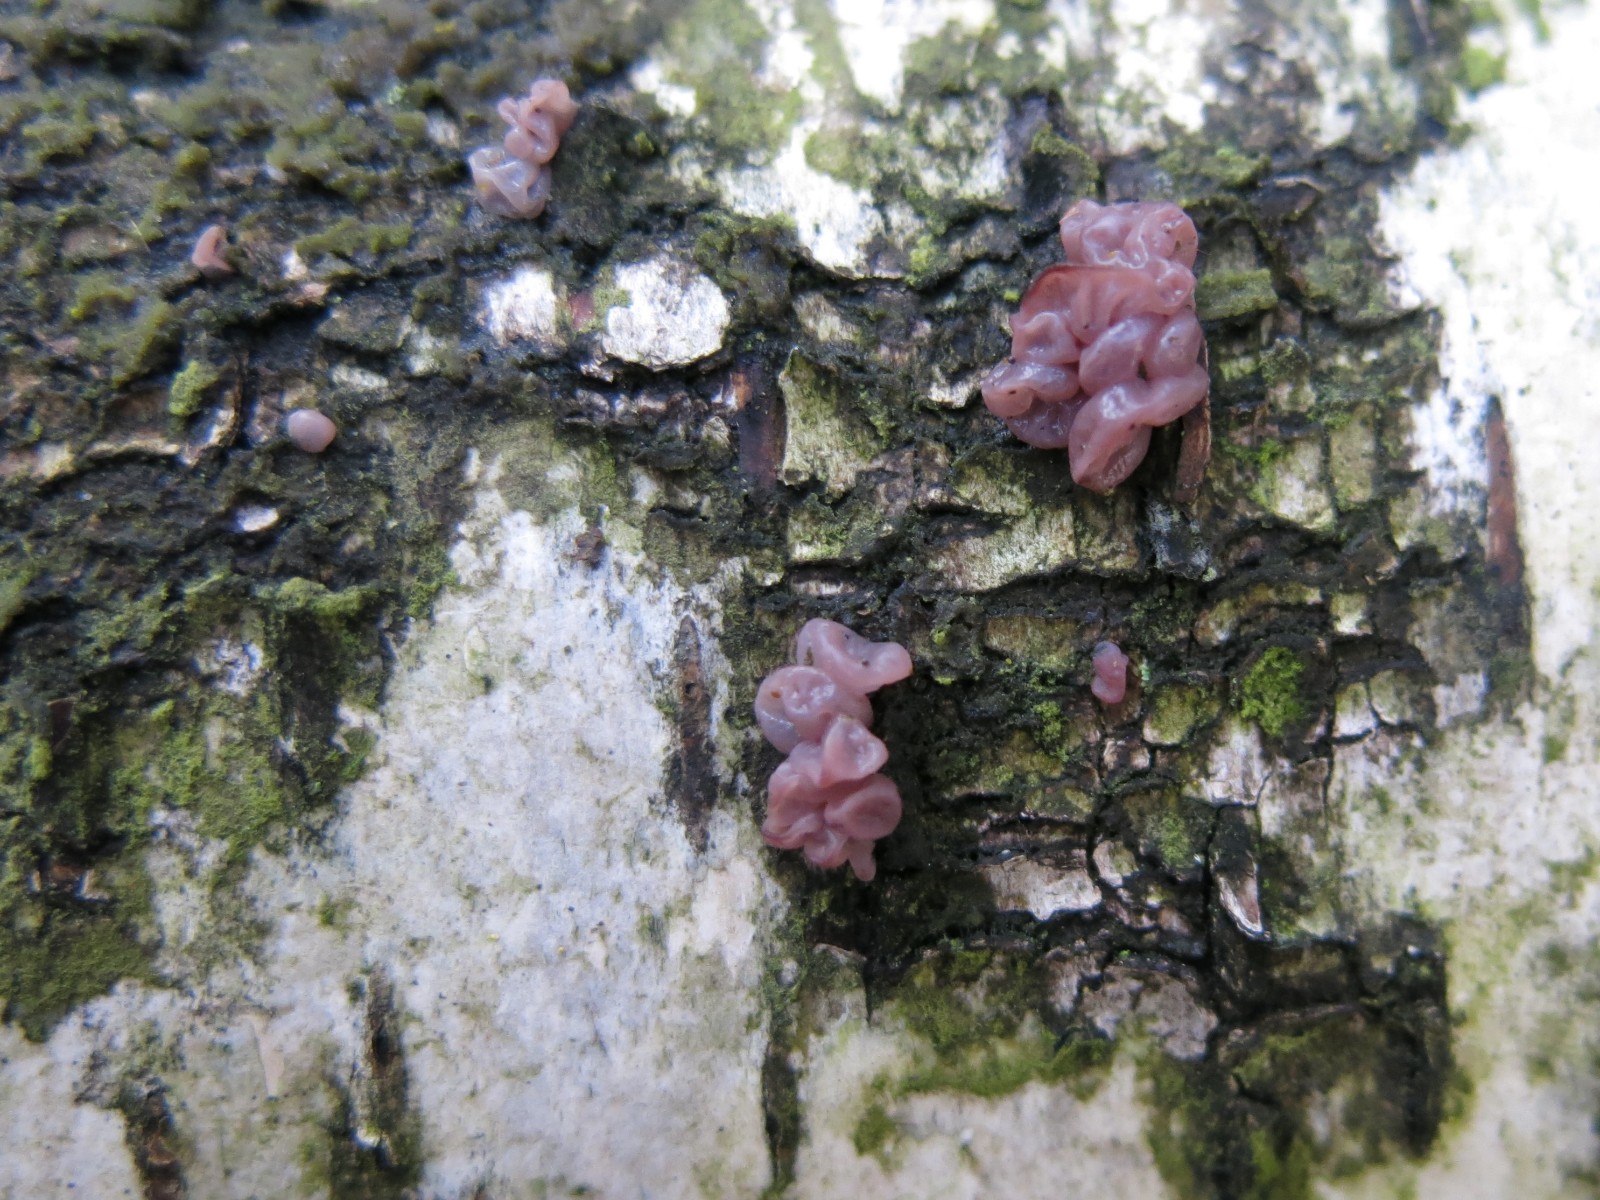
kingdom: Fungi
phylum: Ascomycota
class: Leotiomycetes
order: Helotiales
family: Gelatinodiscaceae
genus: Ascocoryne
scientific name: Ascocoryne sarcoides
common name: rødlilla sejskive
